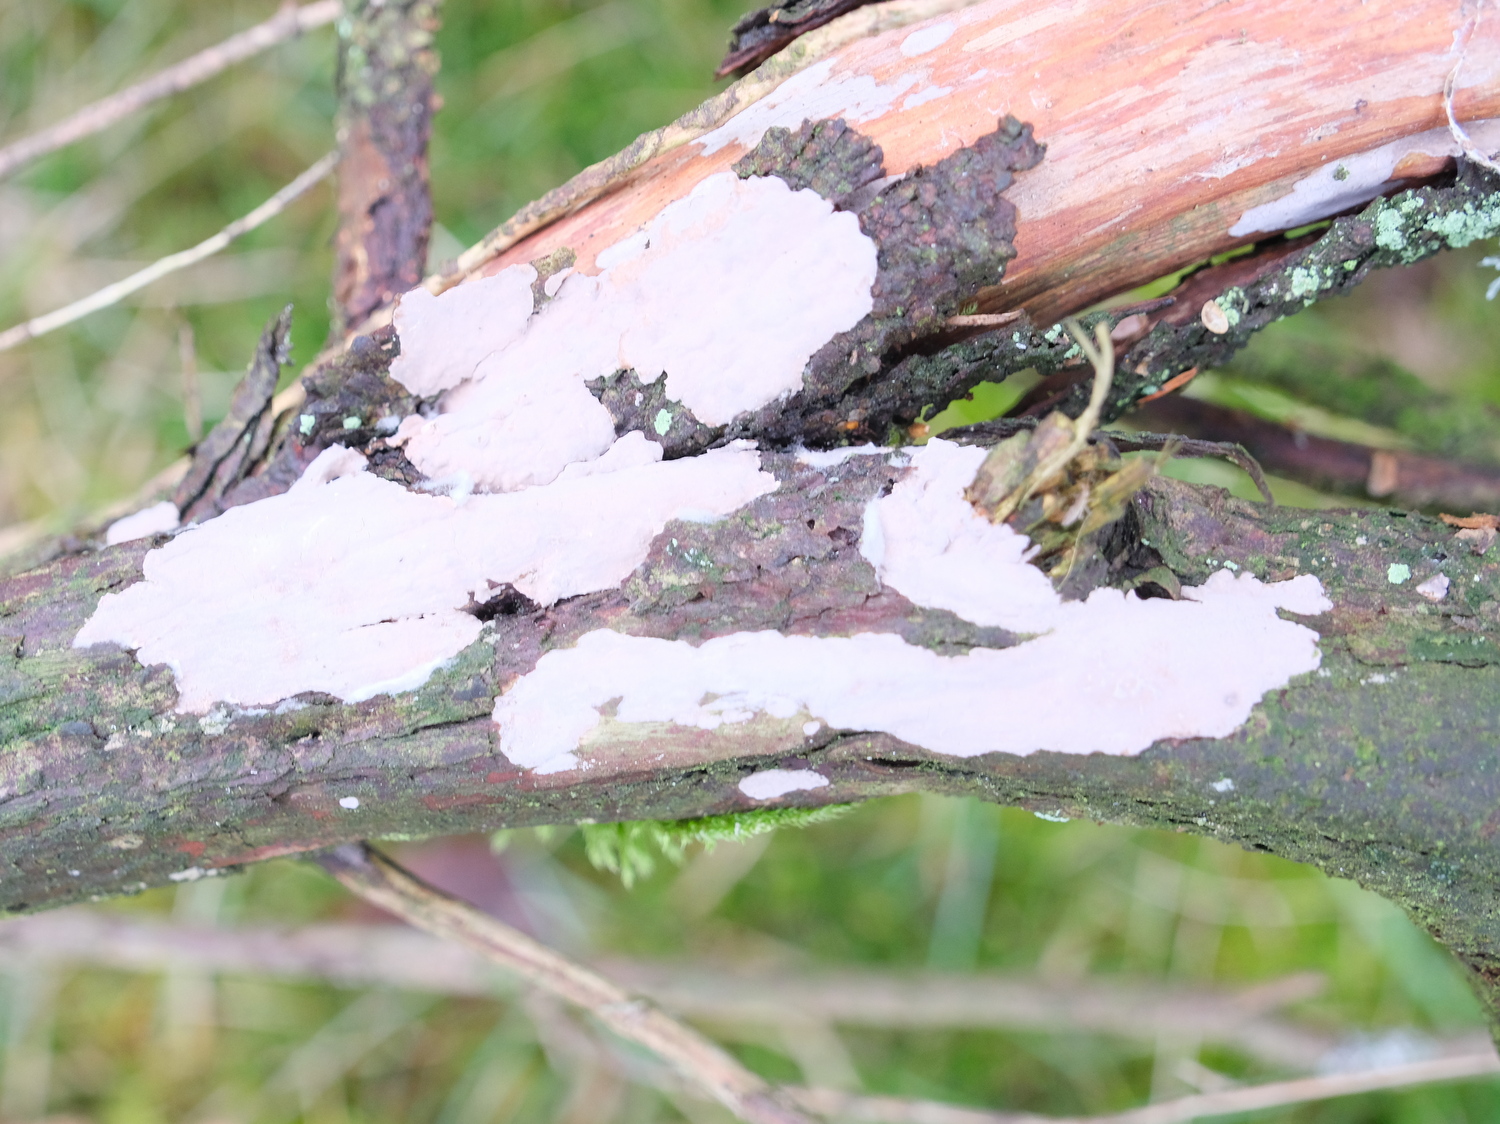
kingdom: Fungi
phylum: Basidiomycota
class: Agaricomycetes
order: Russulales
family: Echinodontiaceae
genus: Amylostereum
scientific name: Amylostereum laevigatum
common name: ene-lædersvamp
